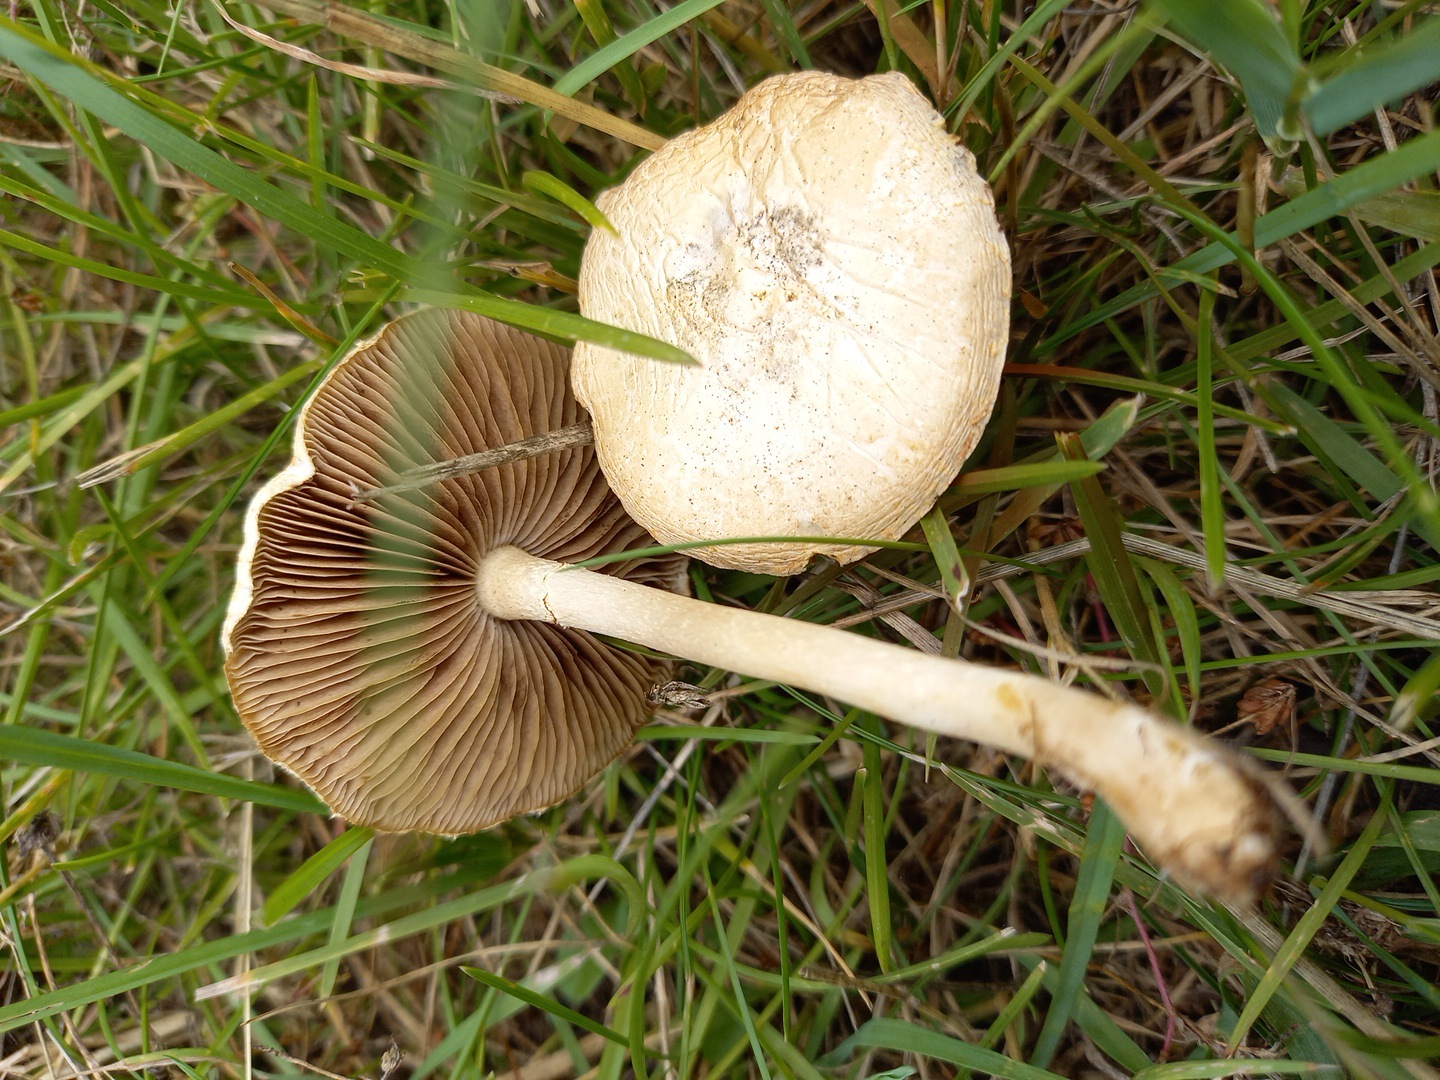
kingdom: Fungi
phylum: Basidiomycota
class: Agaricomycetes
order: Agaricales
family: Strophariaceae
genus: Agrocybe
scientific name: Agrocybe
